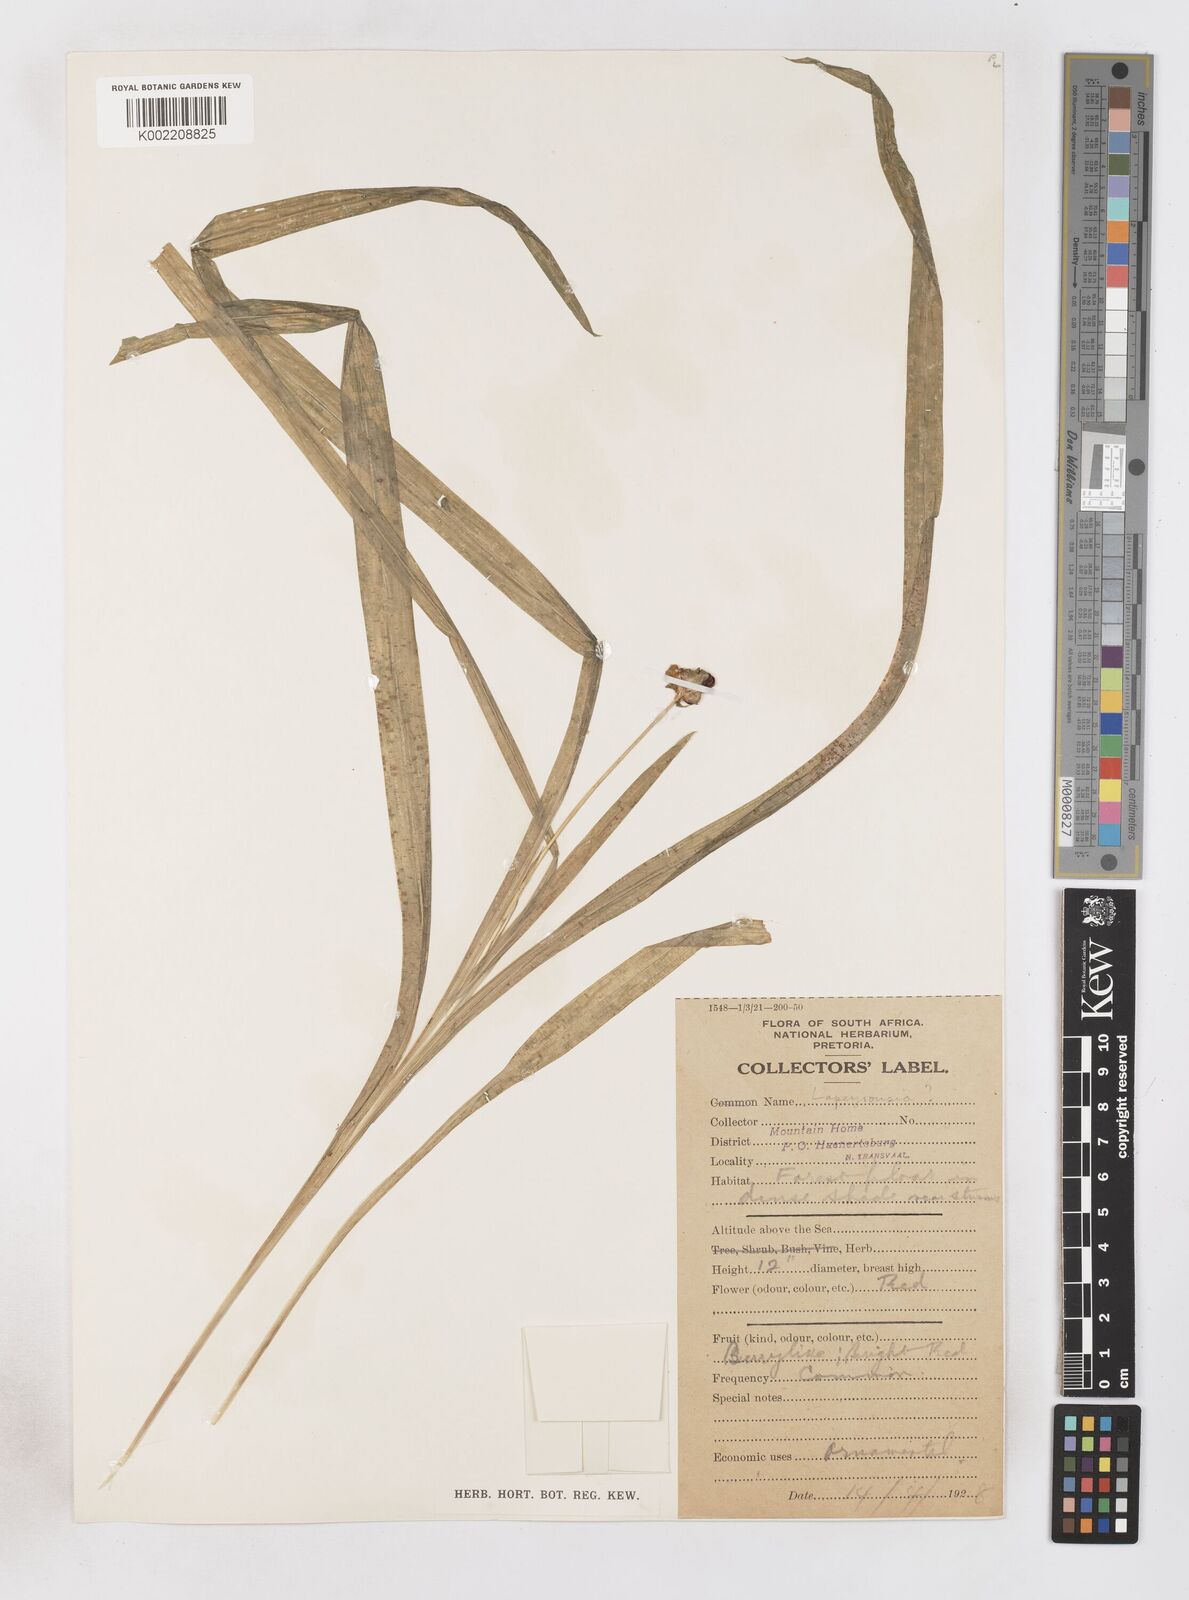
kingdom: Plantae
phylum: Tracheophyta
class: Liliopsida
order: Asparagales
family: Iridaceae
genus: Freesia
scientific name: Freesia grandiflora
